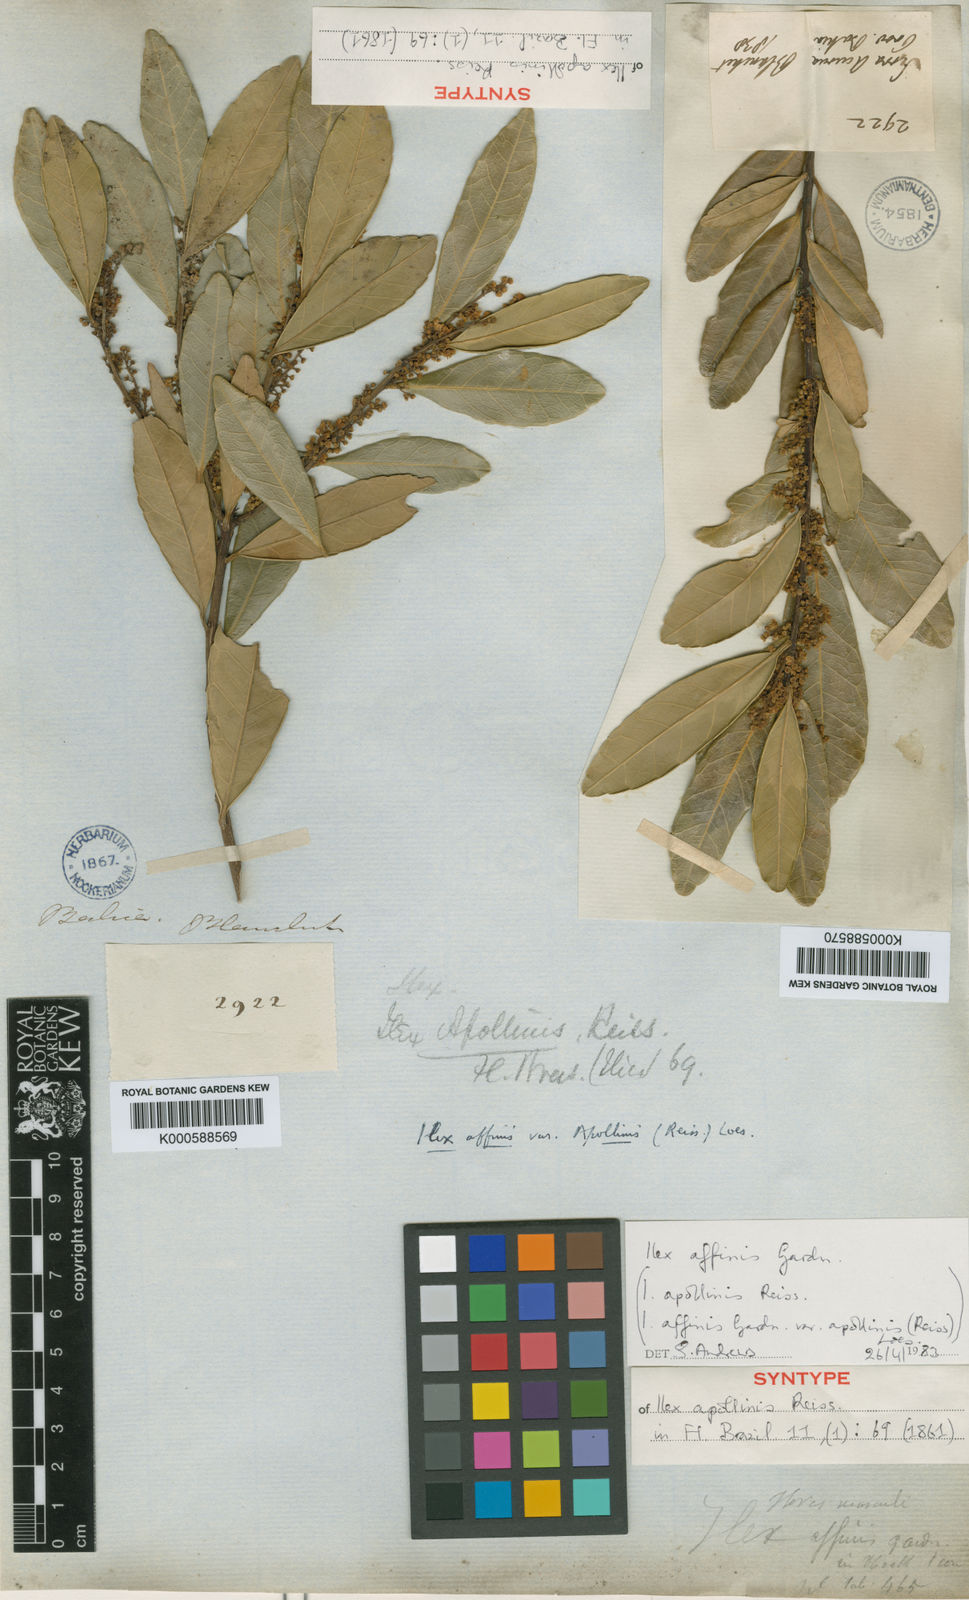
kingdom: Plantae
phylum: Tracheophyta
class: Magnoliopsida
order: Aquifoliales
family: Aquifoliaceae
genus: Ilex
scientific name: Ilex affinis
